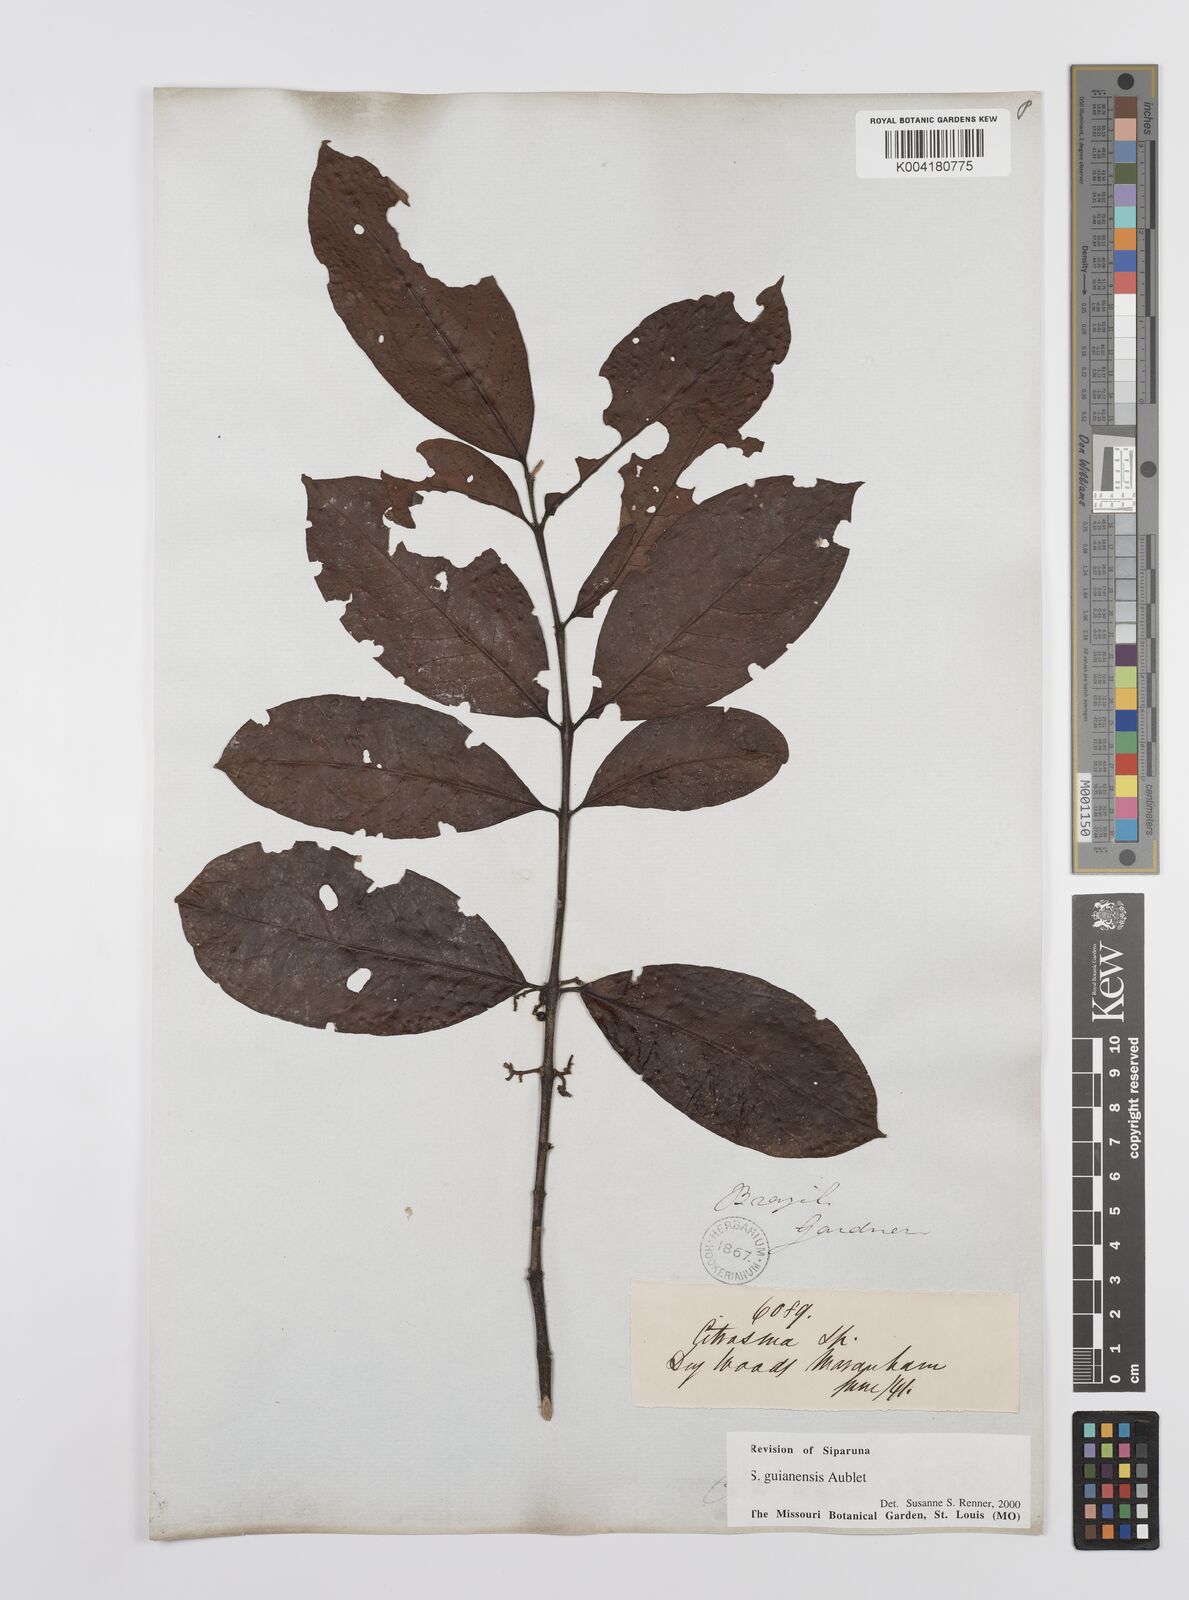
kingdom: Plantae
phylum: Tracheophyta
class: Magnoliopsida
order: Laurales
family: Siparunaceae
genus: Siparuna
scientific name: Siparuna guianensis
